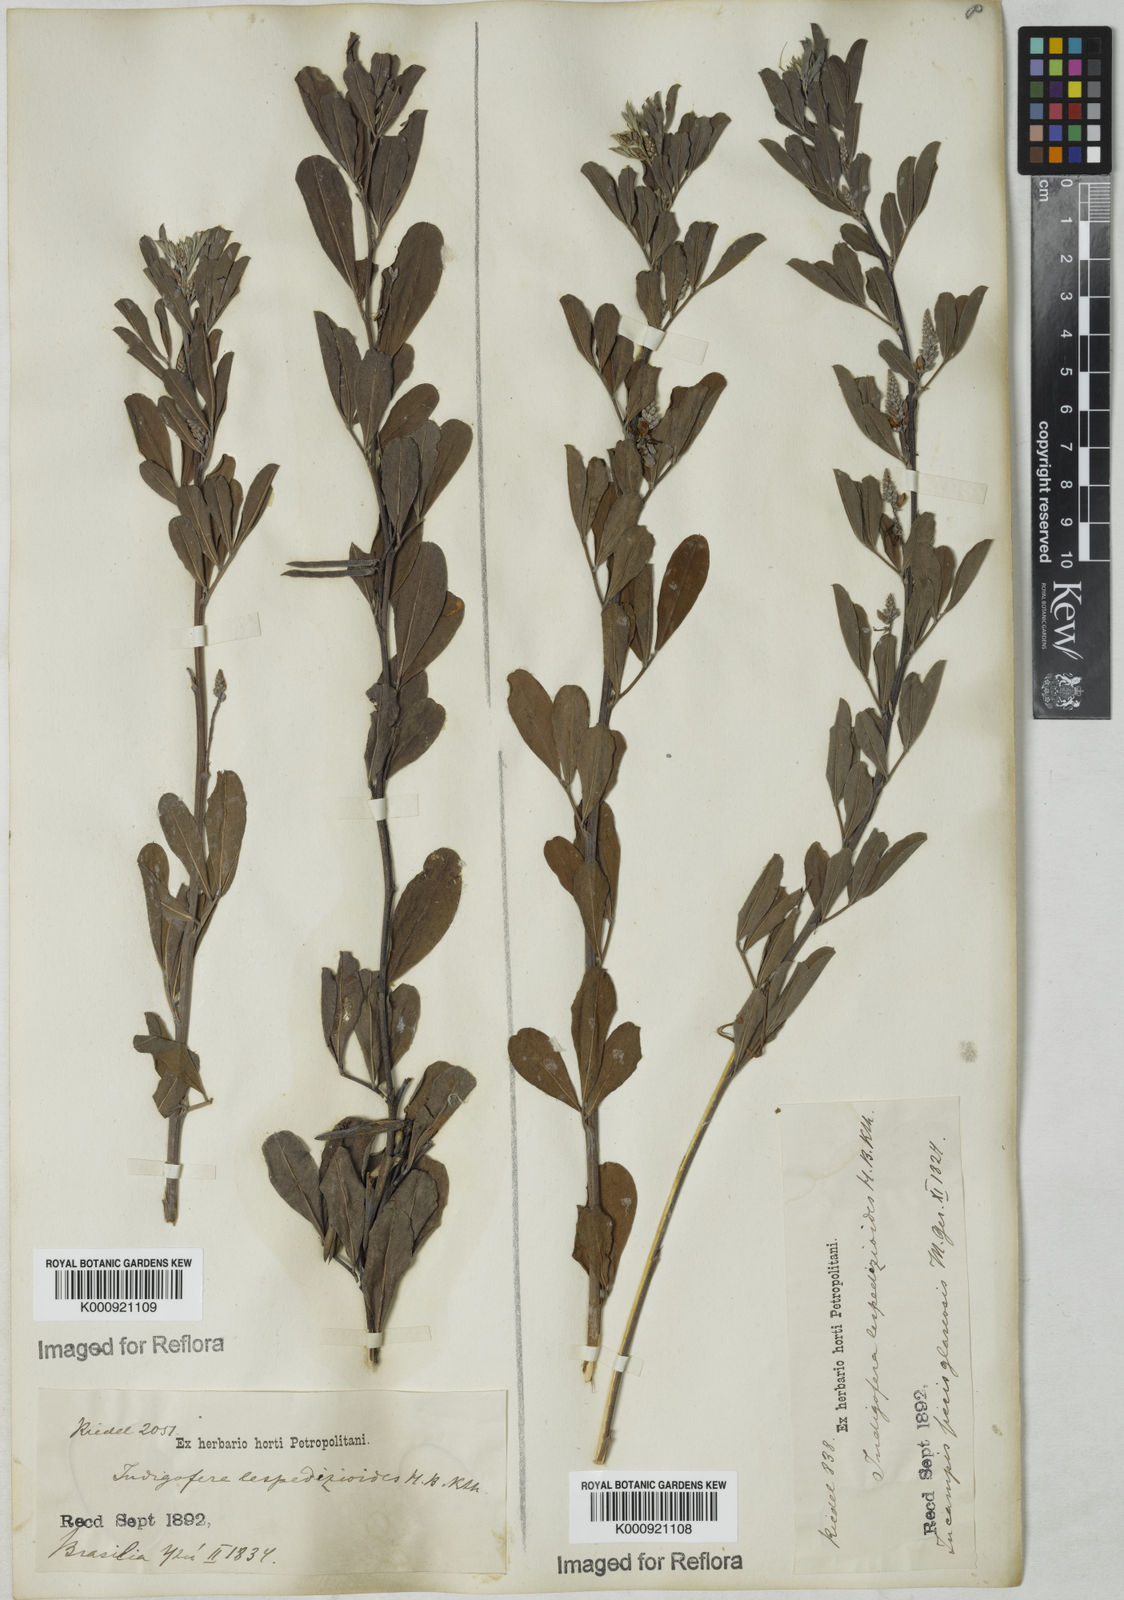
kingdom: Plantae
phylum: Tracheophyta
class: Magnoliopsida
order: Fabales
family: Fabaceae
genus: Indigofera
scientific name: Indigofera lespedezioides
